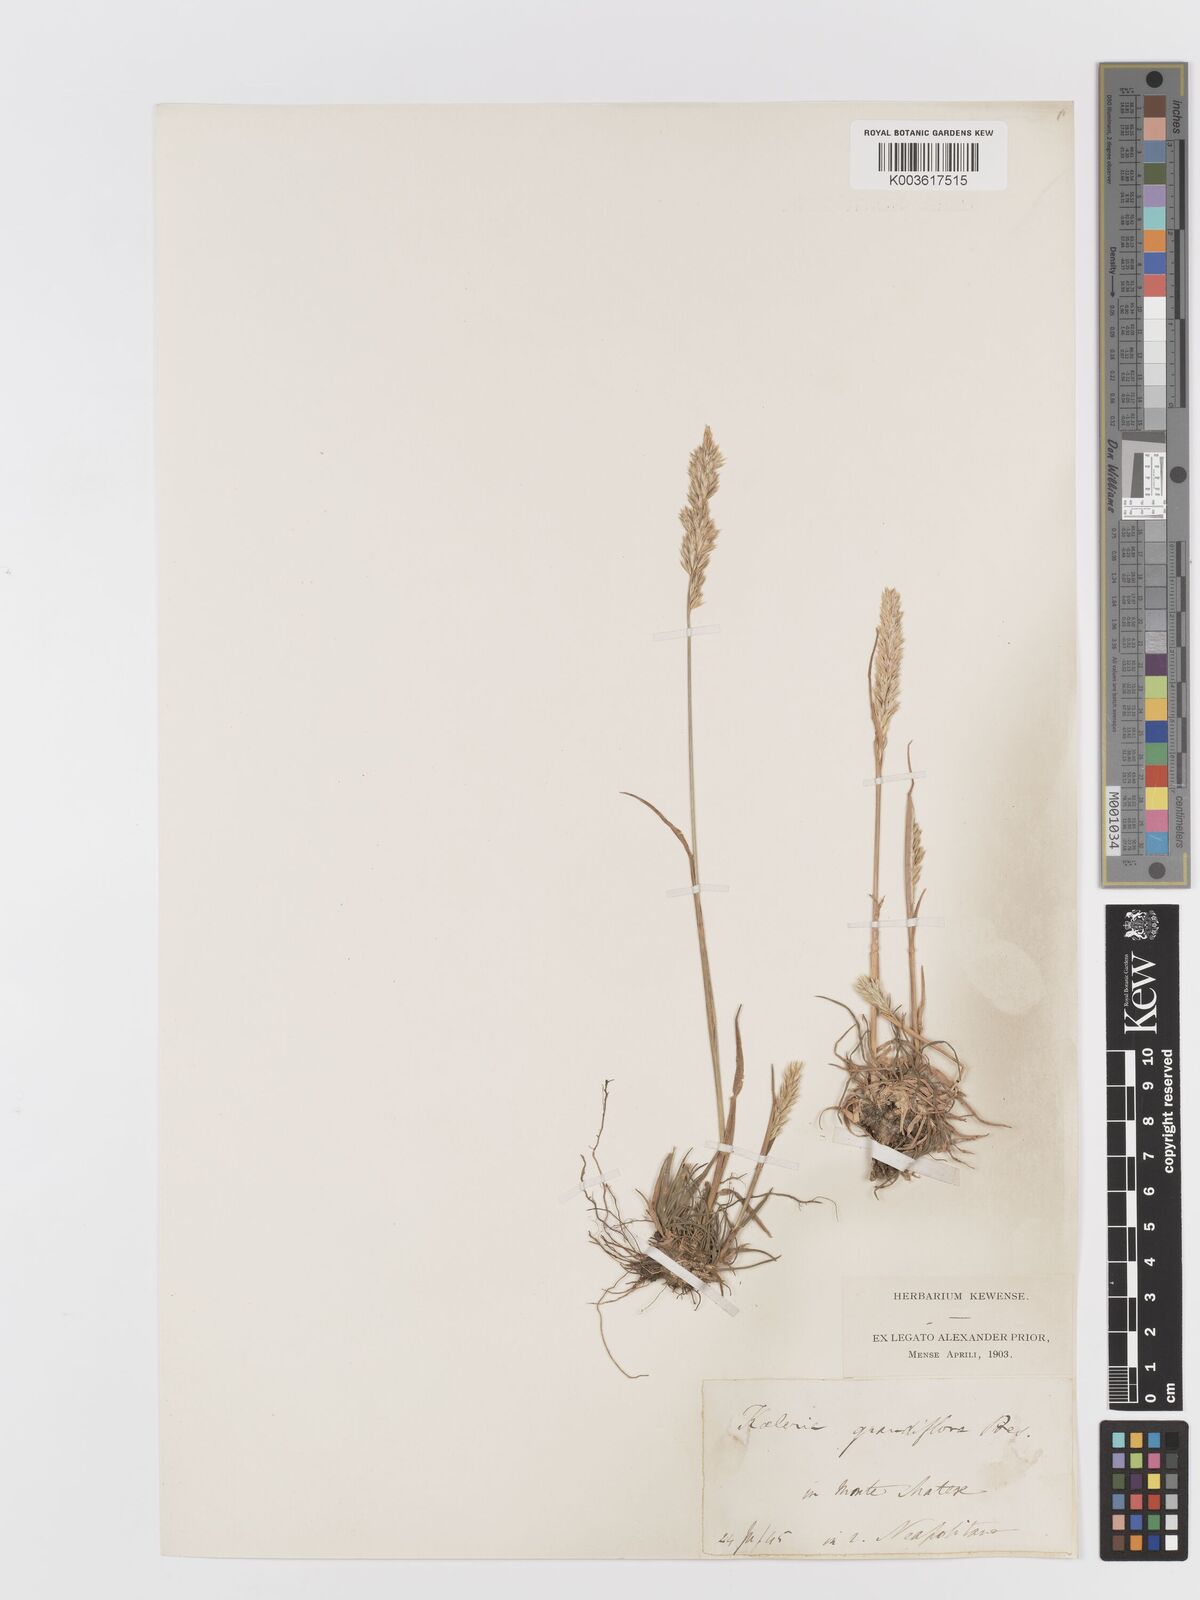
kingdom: Plantae
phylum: Tracheophyta
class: Liliopsida
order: Poales
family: Poaceae
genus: Koeleria
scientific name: Koeleria
